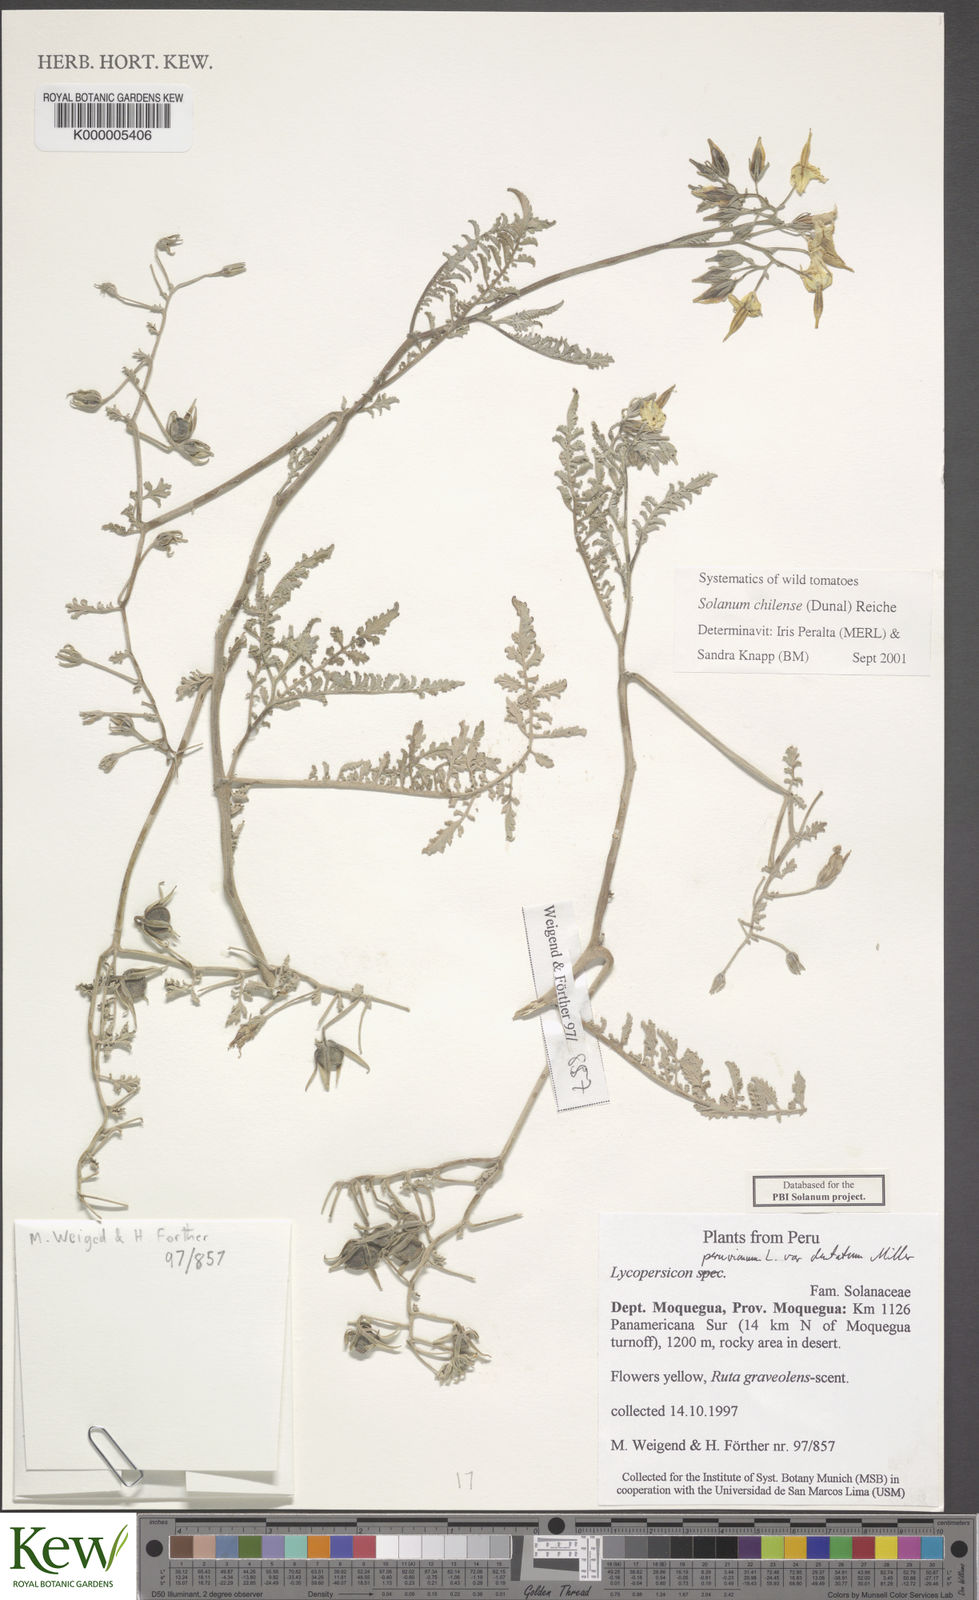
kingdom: Plantae
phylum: Tracheophyta
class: Magnoliopsida
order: Solanales
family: Solanaceae
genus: Solanum
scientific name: Solanum chilense
